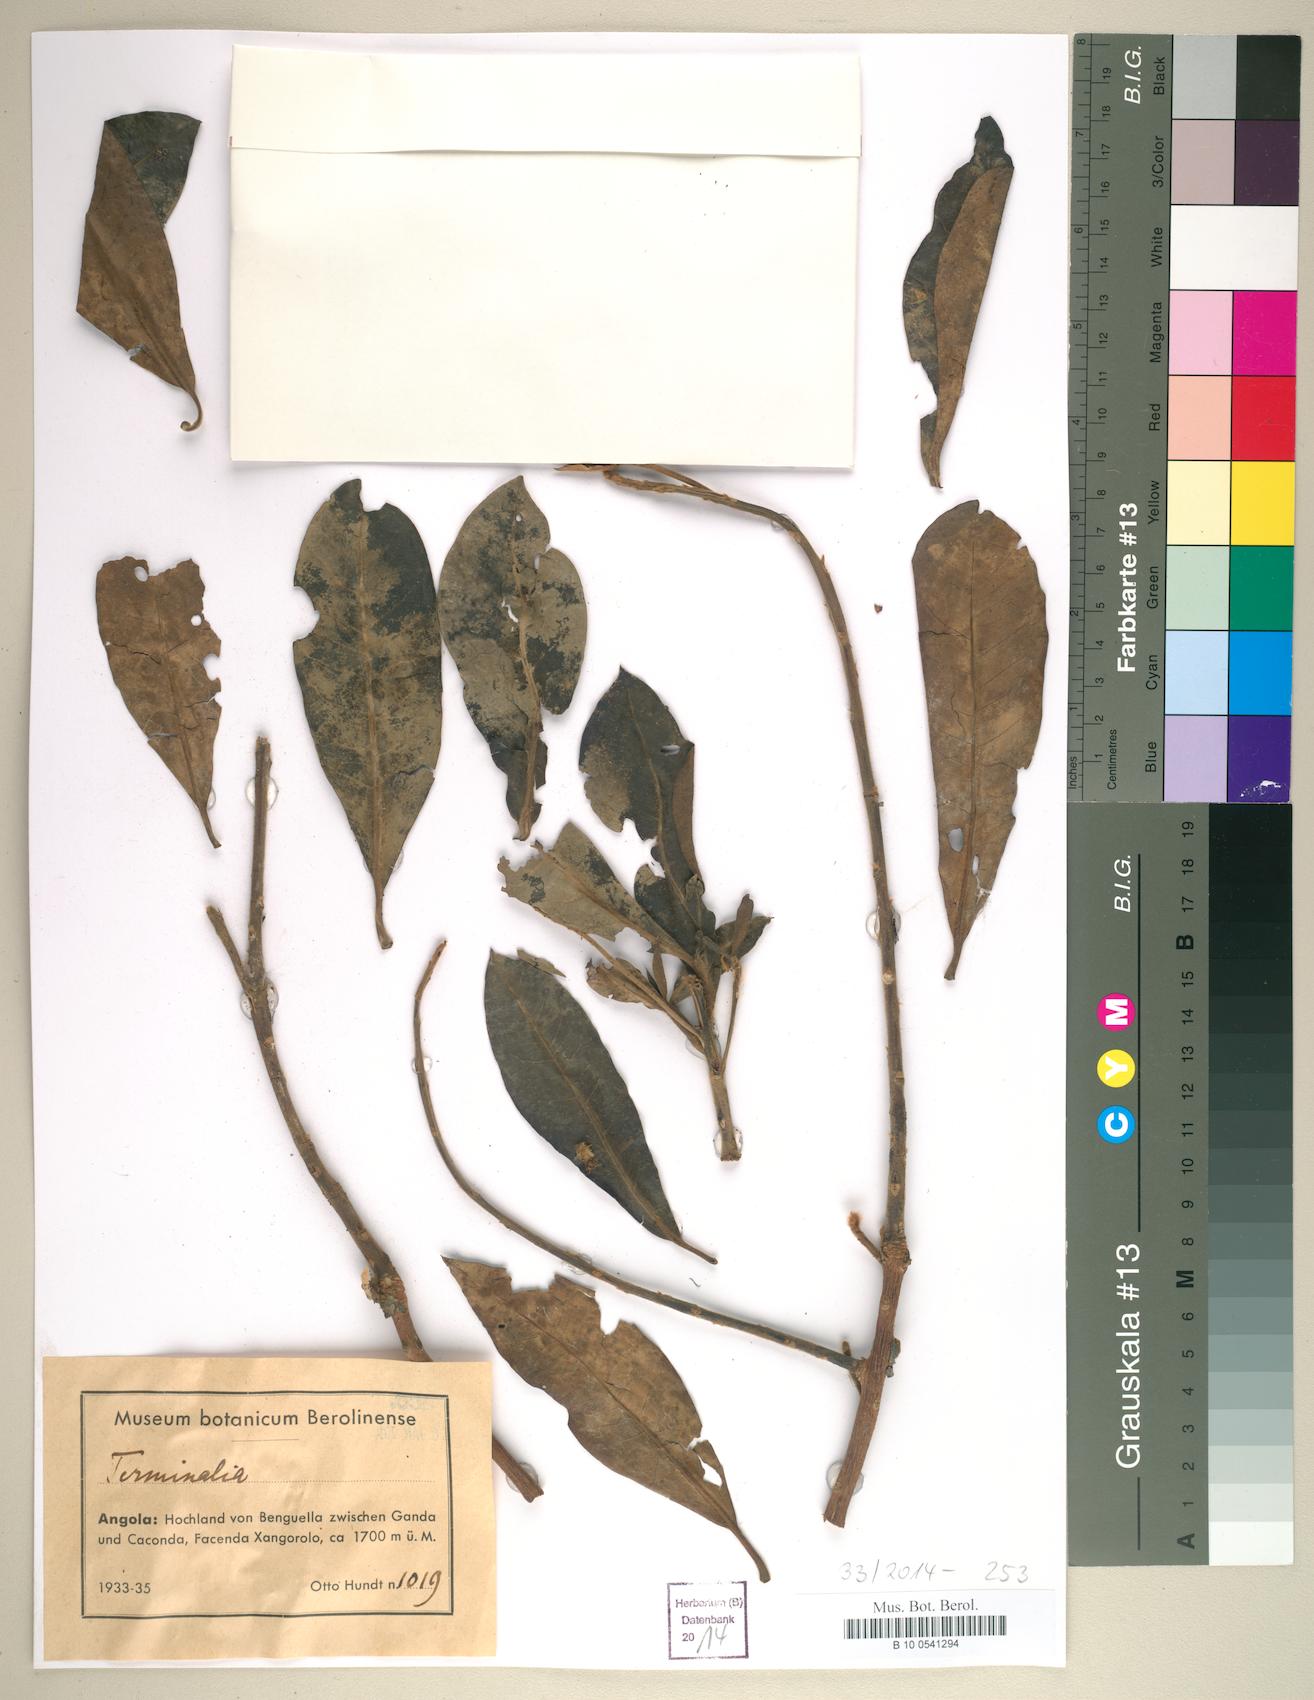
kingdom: Plantae
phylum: Tracheophyta
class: Magnoliopsida
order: Myrtales
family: Combretaceae
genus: Terminalia
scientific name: Terminalia
